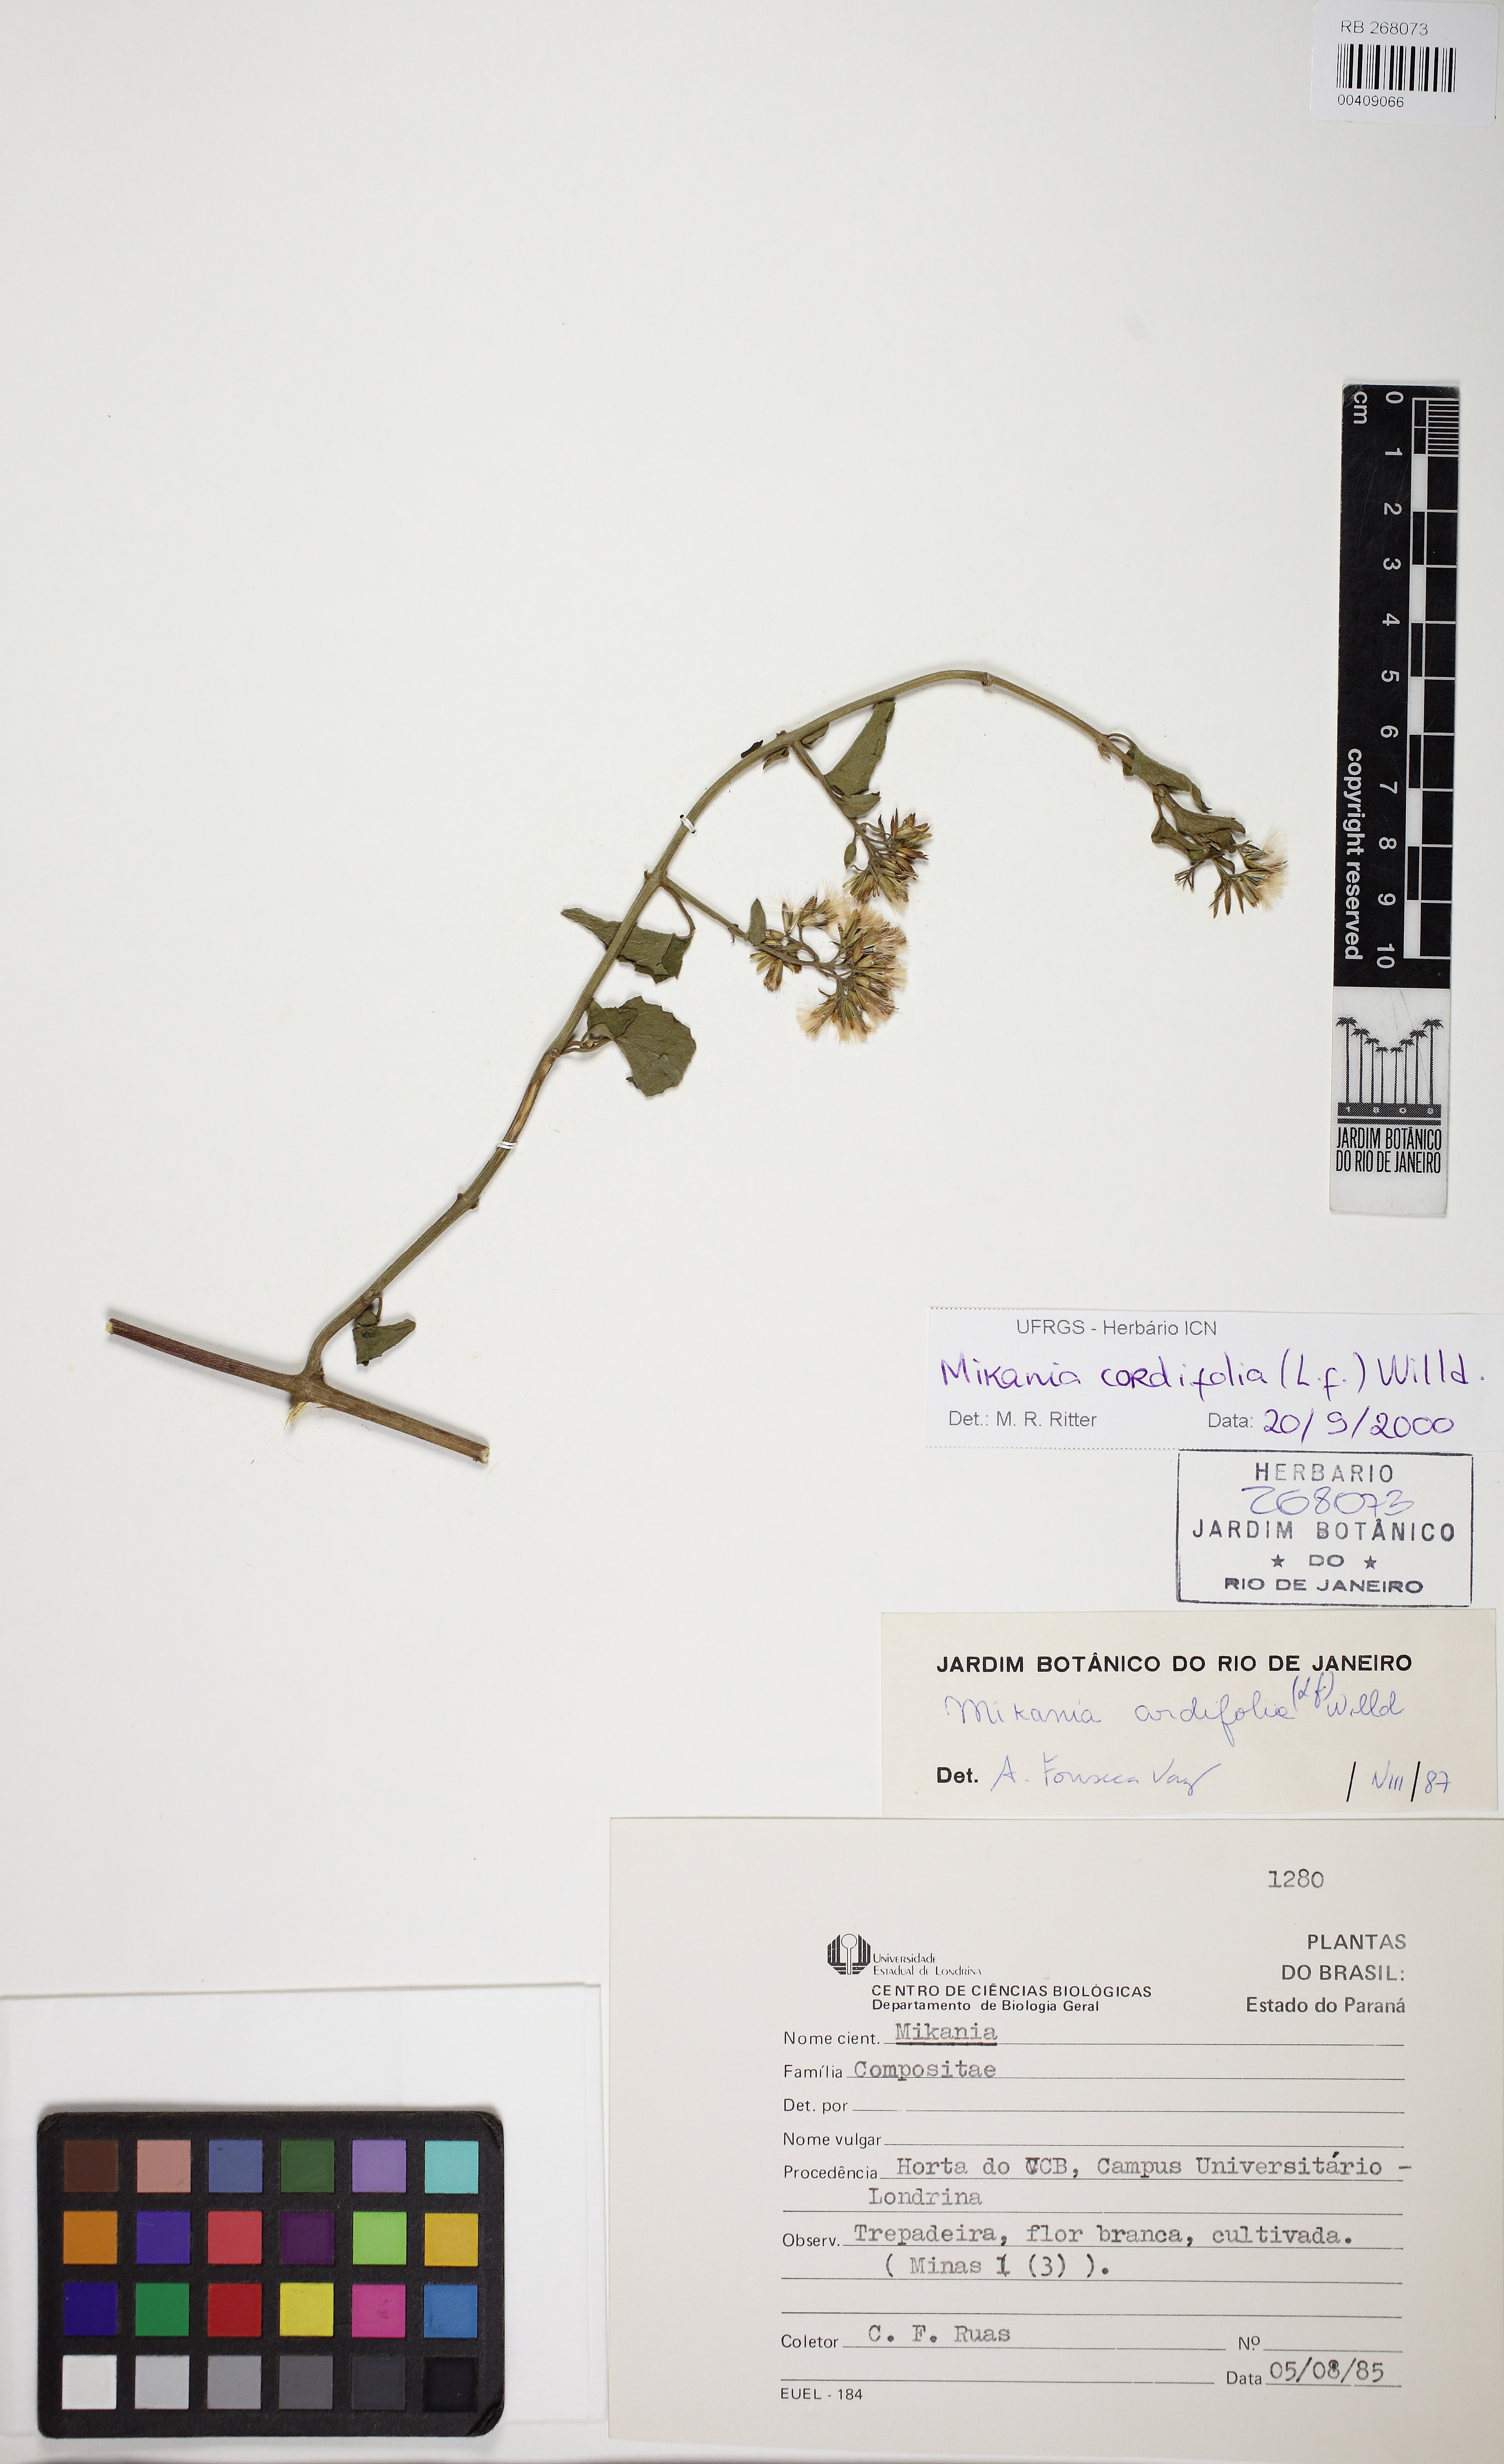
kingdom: Plantae
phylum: Tracheophyta
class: Magnoliopsida
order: Asterales
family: Asteraceae
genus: Mikania
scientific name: Mikania cordifolia
